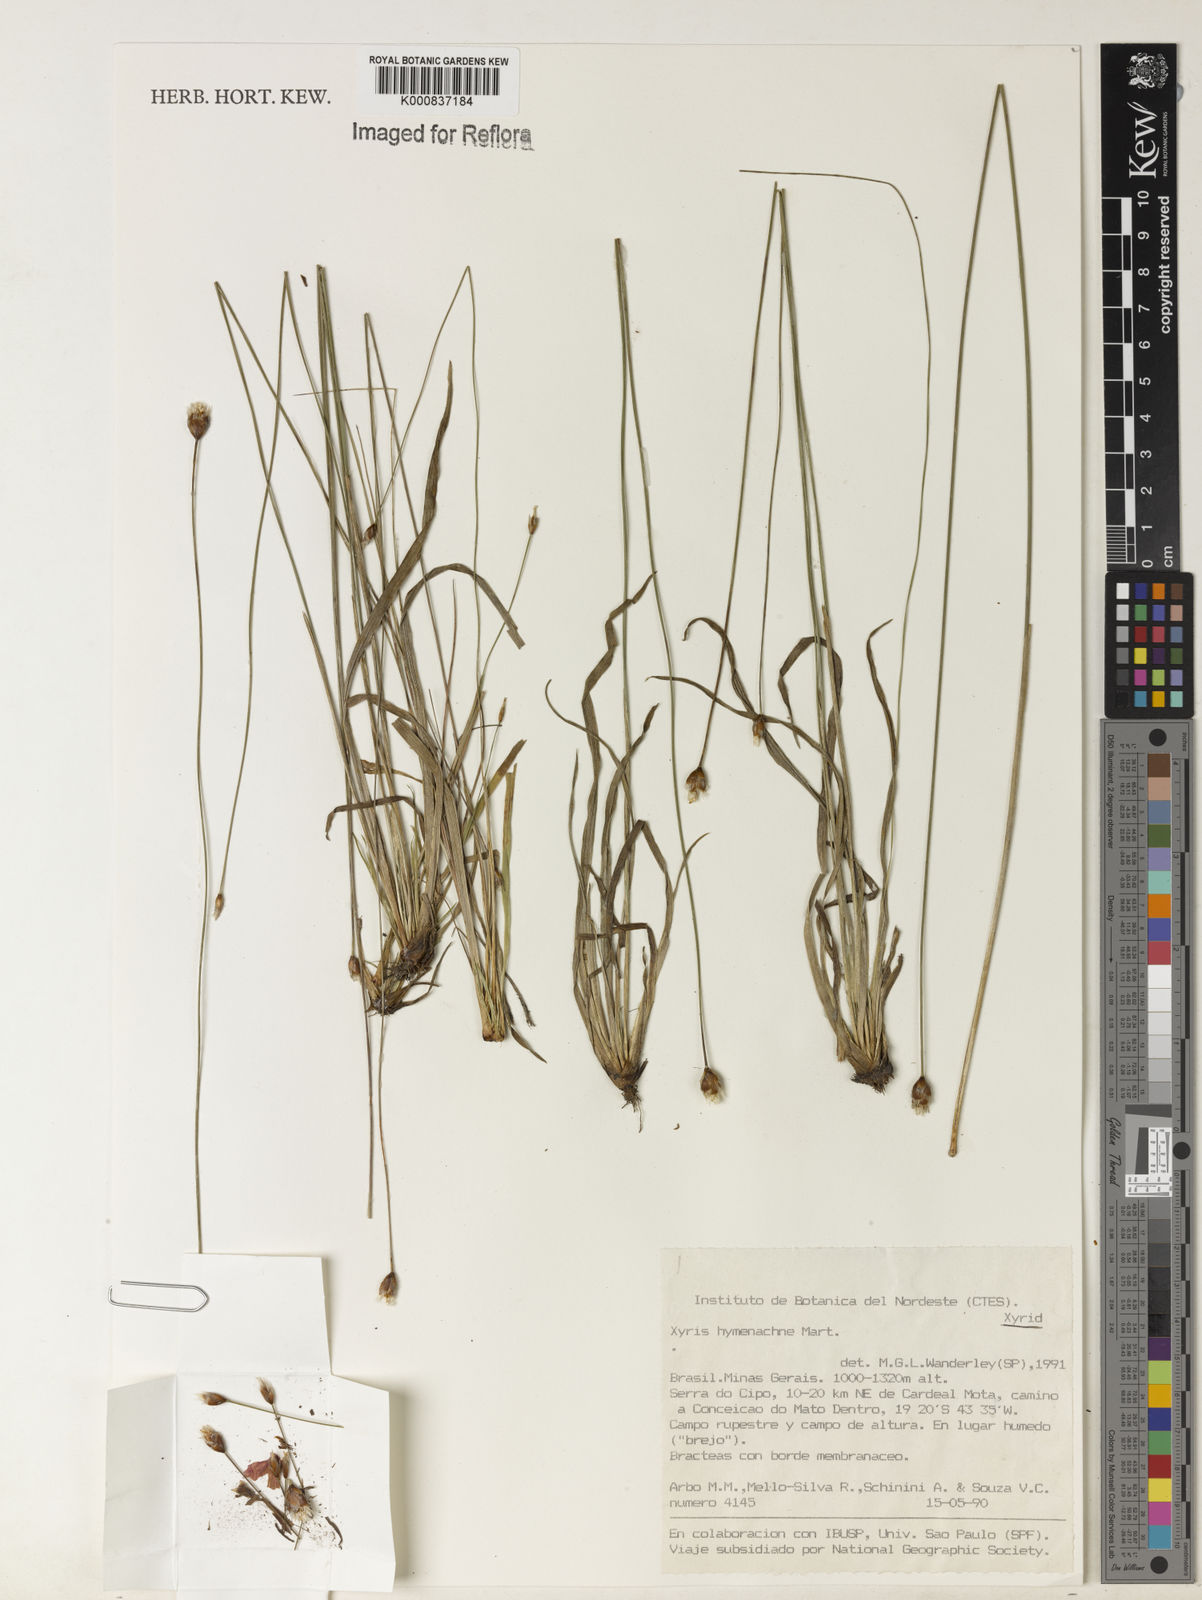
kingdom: Plantae
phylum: Tracheophyta
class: Liliopsida
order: Poales
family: Xyridaceae
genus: Xyris
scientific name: Xyris hymenachne
